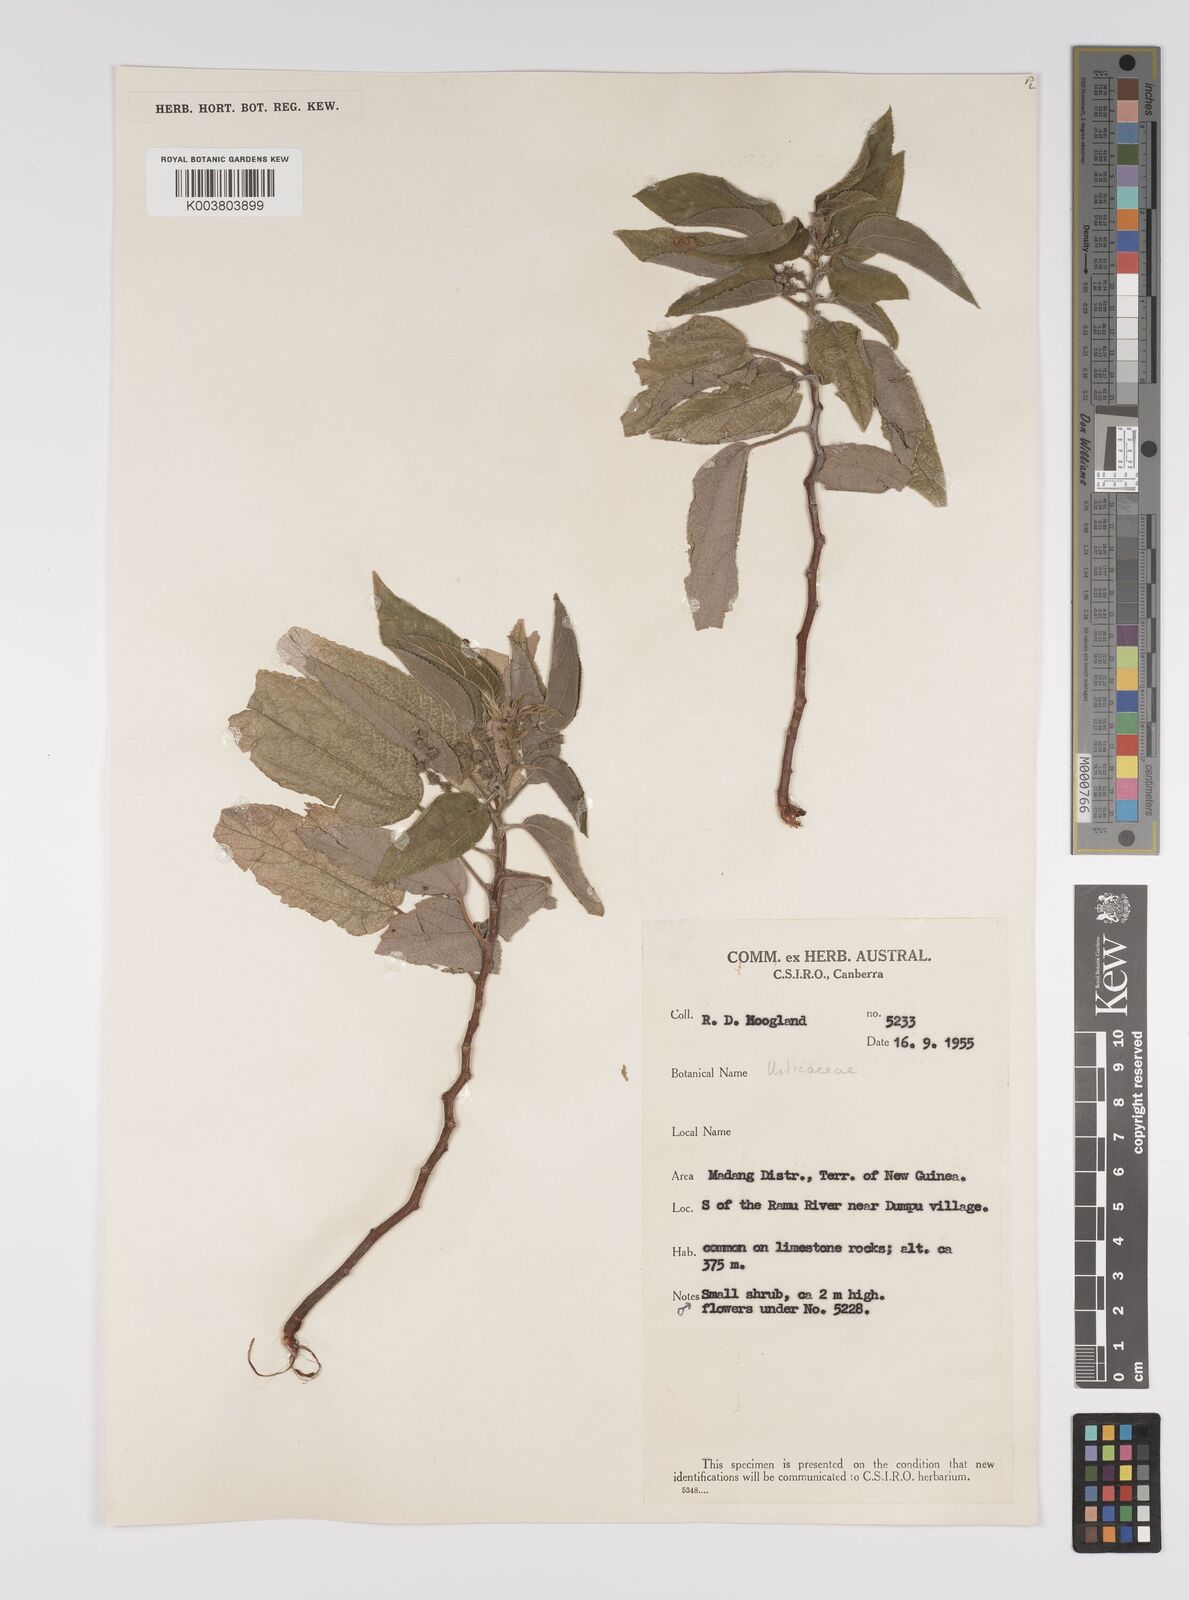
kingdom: Plantae
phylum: Tracheophyta
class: Magnoliopsida
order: Rosales
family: Urticaceae
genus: Pipturus
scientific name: Pipturus argenteus
